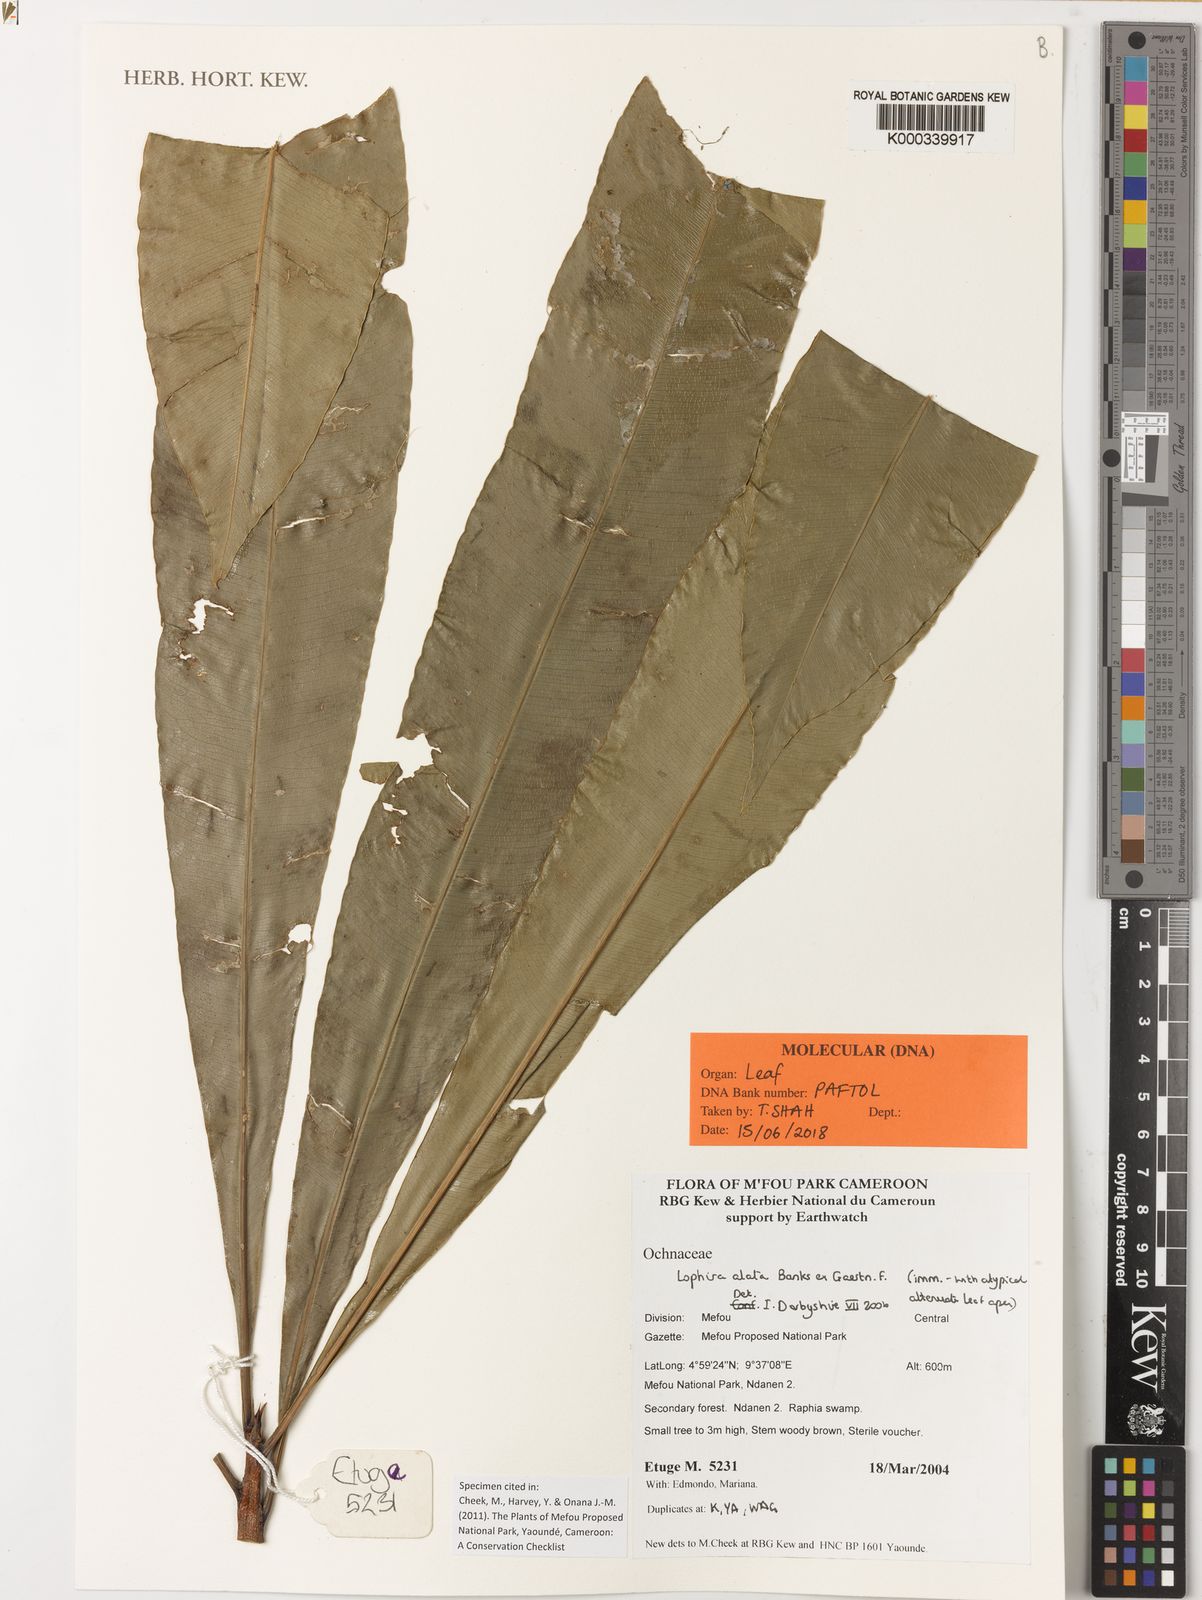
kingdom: Plantae
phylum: Tracheophyta
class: Magnoliopsida
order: Malpighiales
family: Ochnaceae
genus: Lophira
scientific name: Lophira alata
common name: Azobe
